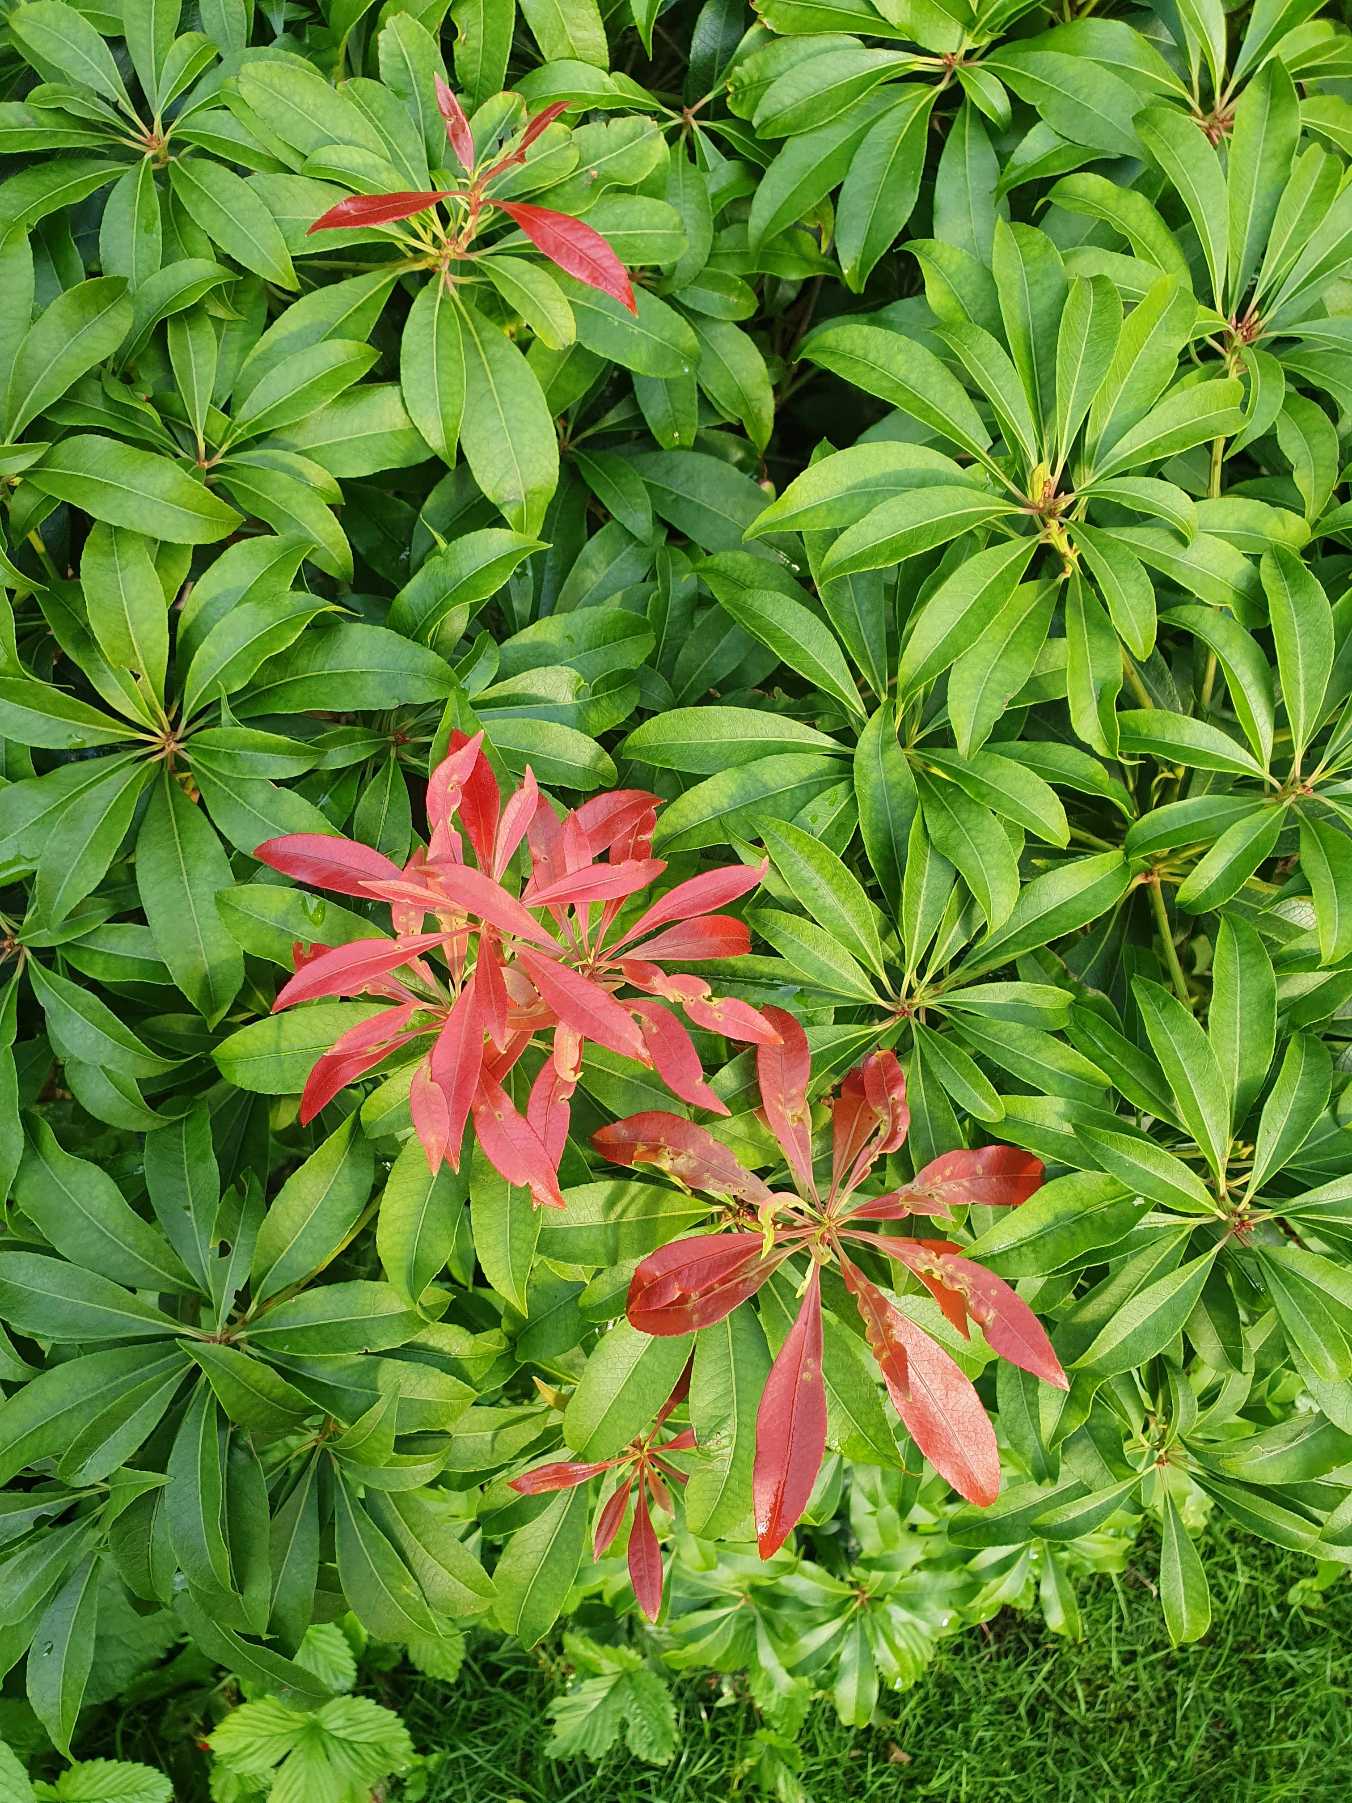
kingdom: Plantae
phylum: Tracheophyta
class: Magnoliopsida
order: Rosales
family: Rosaceae
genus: Photinia
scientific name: Photinia
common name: Photinia
